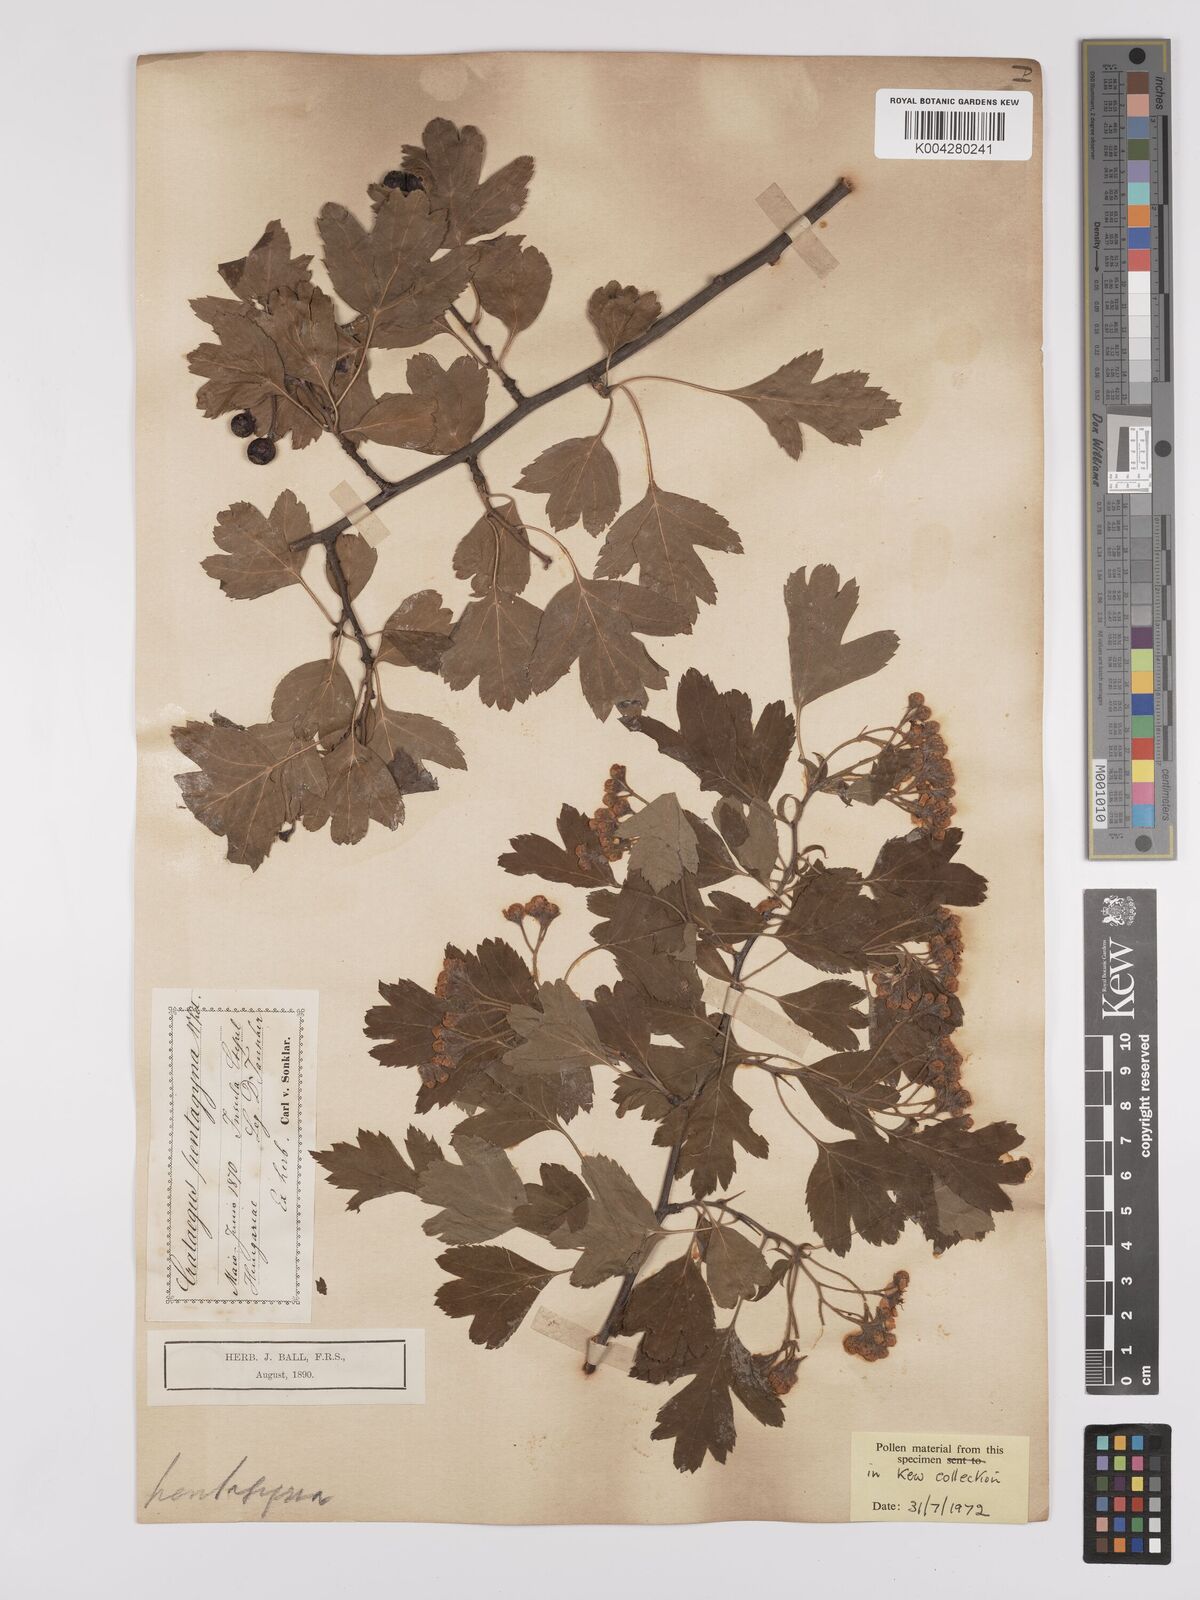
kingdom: Plantae
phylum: Tracheophyta
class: Magnoliopsida
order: Rosales
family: Rosaceae
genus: Crataegus
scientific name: Crataegus pentagyna
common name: Small-flowered black hawthorn
